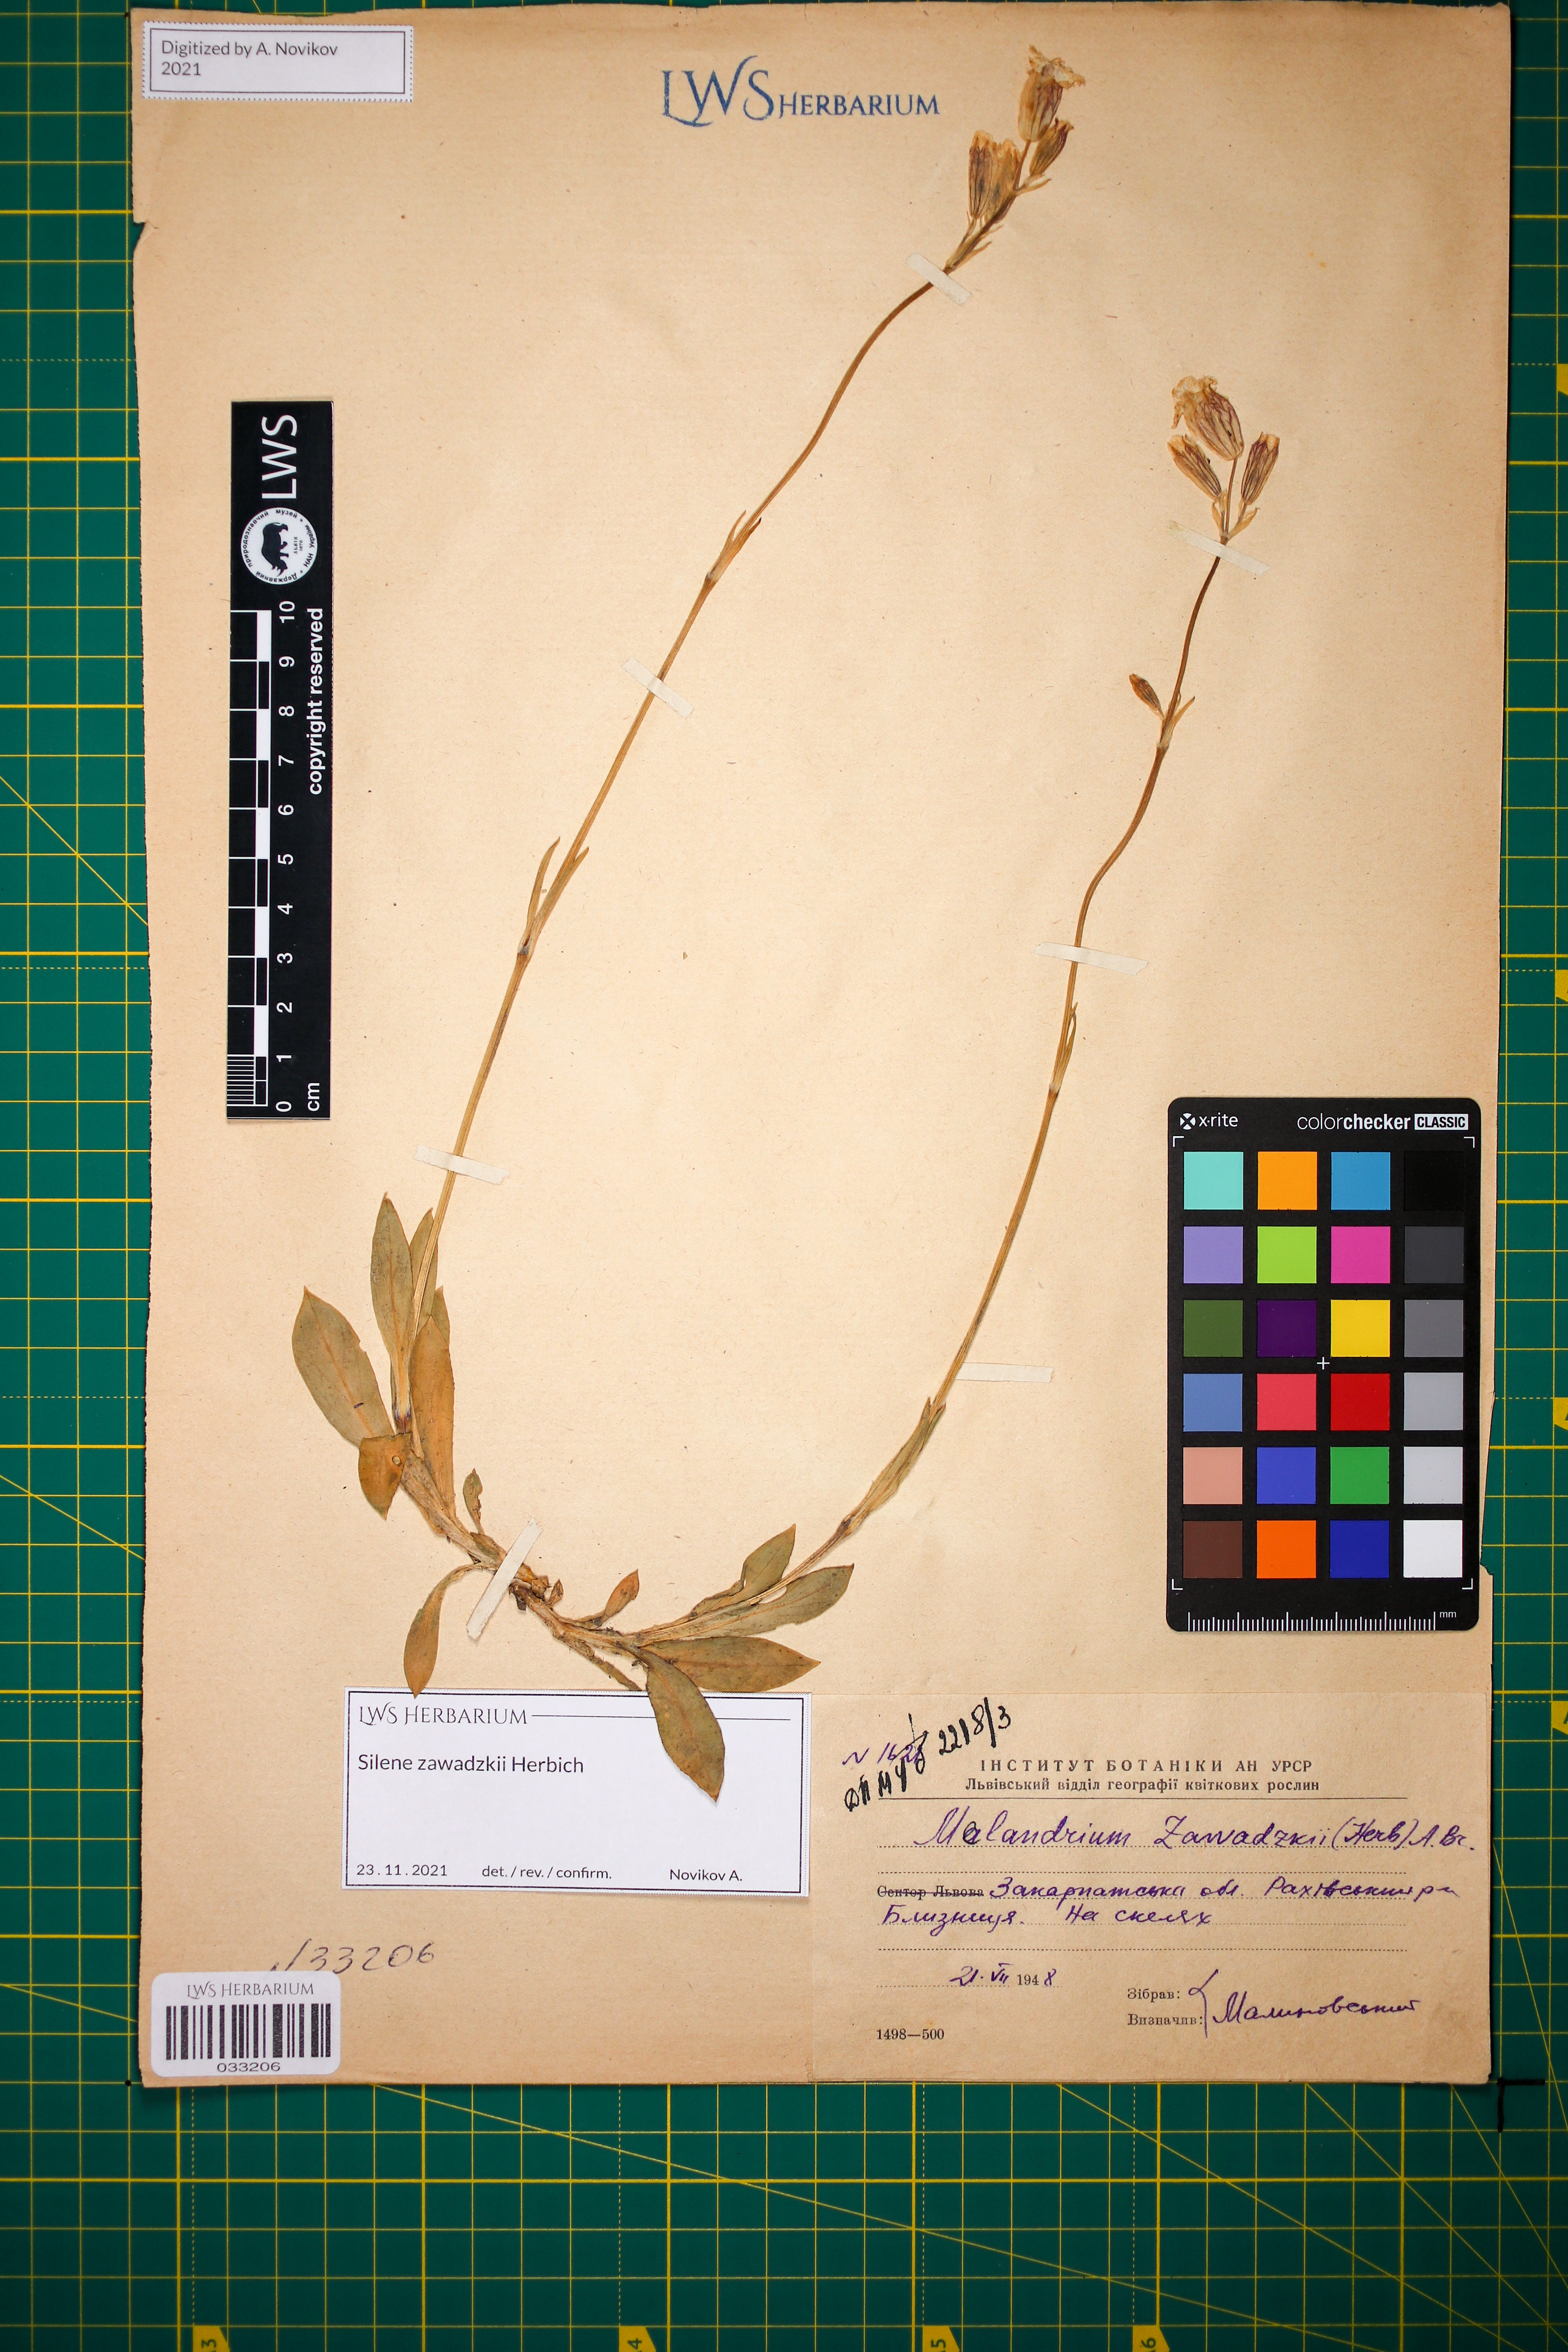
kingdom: Plantae
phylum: Tracheophyta
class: Magnoliopsida
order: Caryophyllales
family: Caryophyllaceae
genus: Silene
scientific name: Silene zawadzkii
